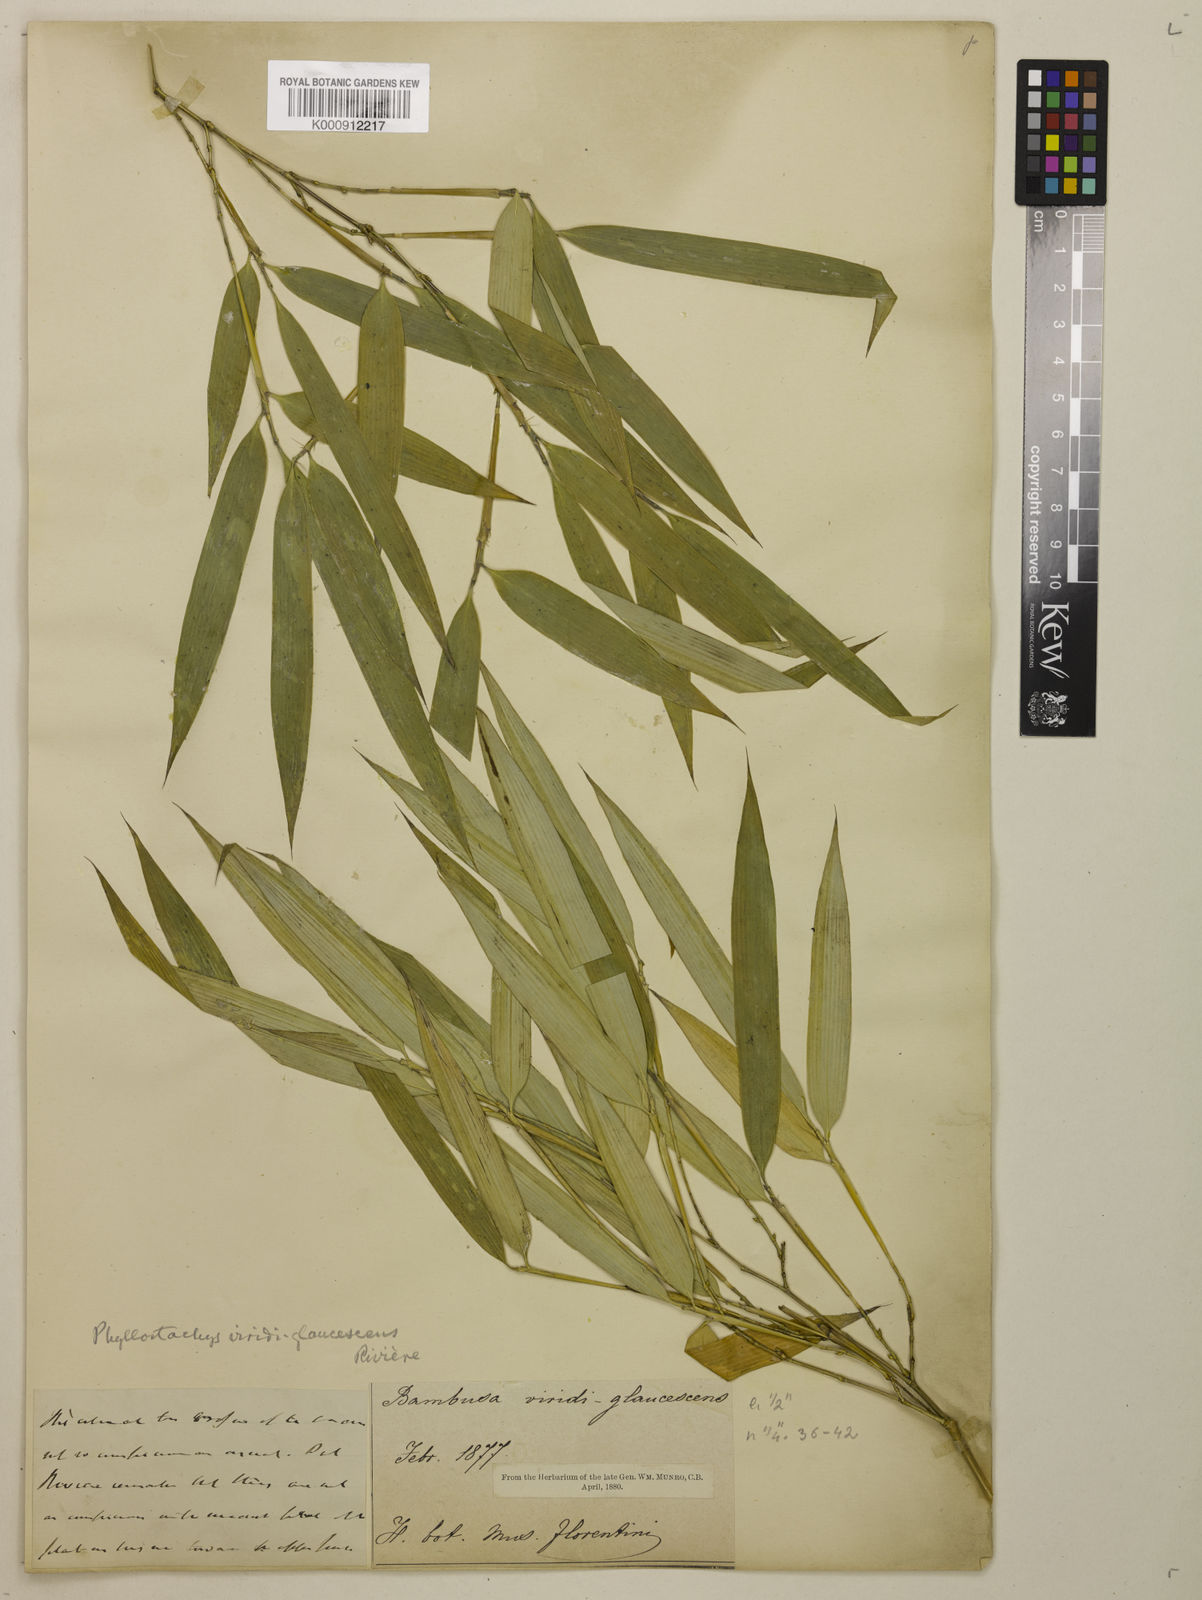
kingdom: Plantae
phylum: Tracheophyta
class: Liliopsida
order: Poales
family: Poaceae
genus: Phyllostachys
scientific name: Phyllostachys
